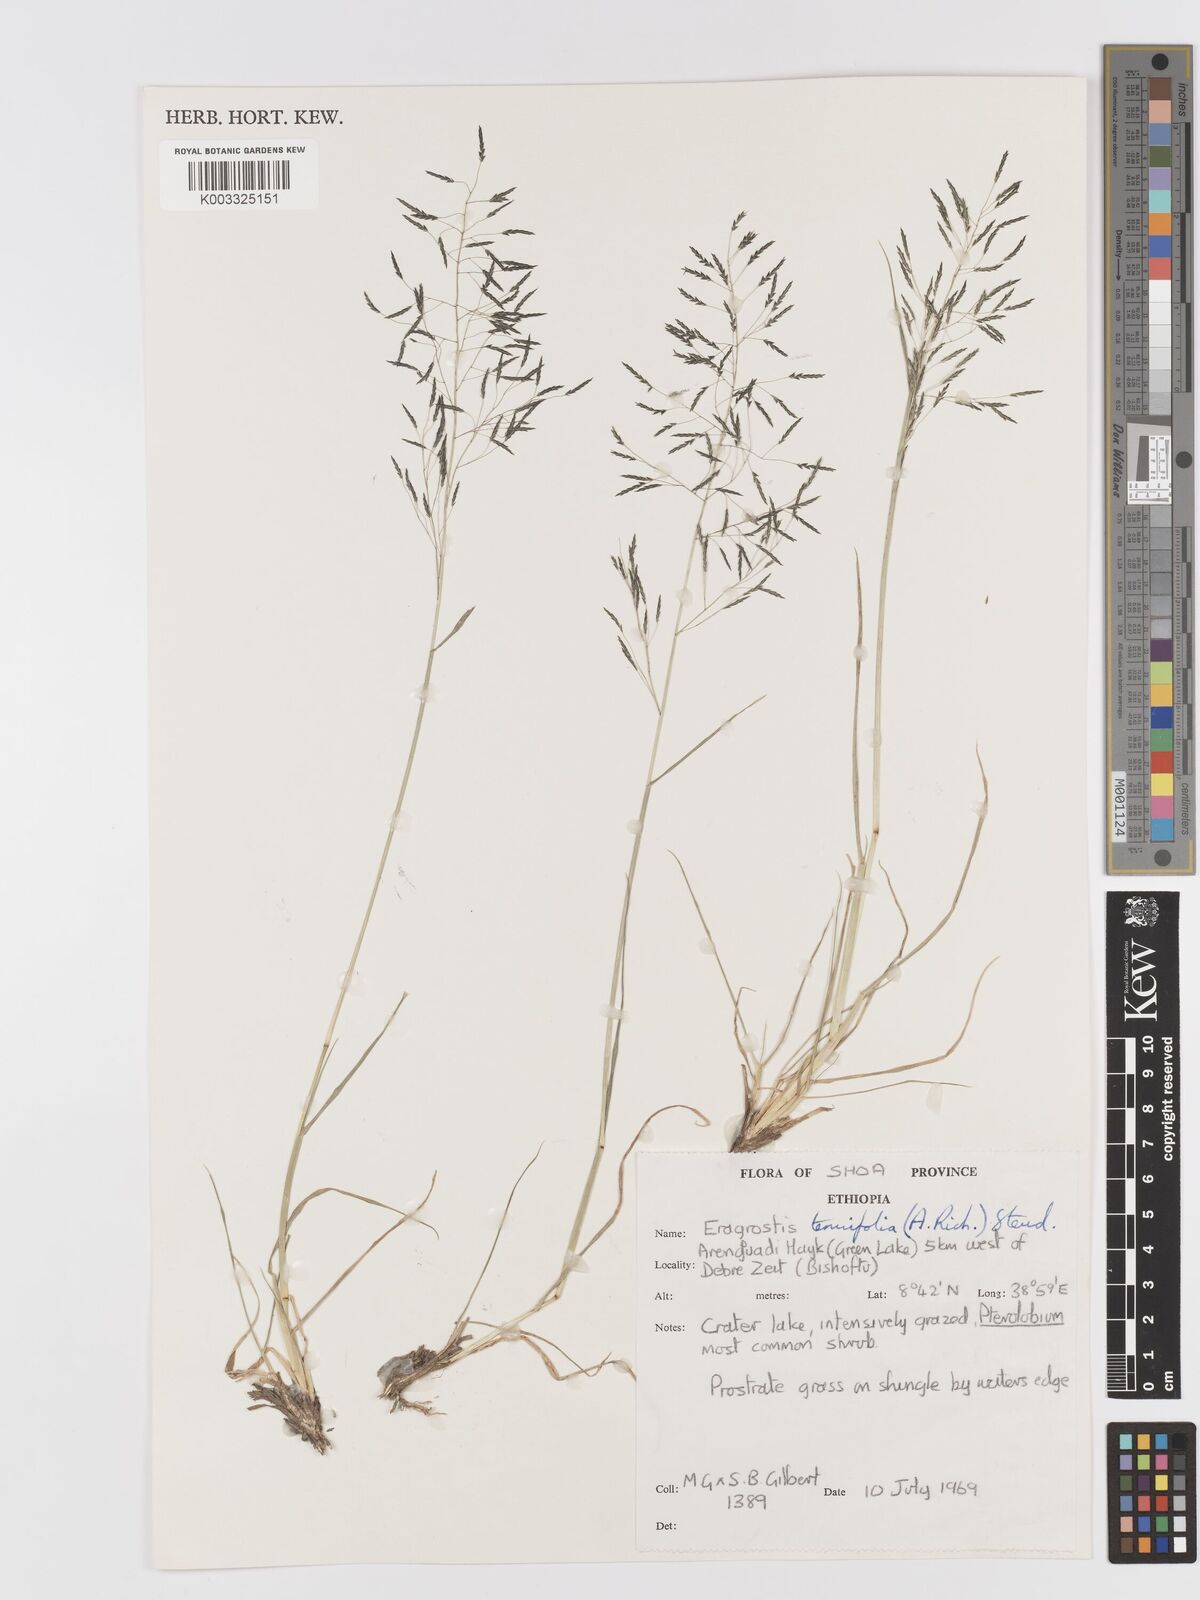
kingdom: Plantae
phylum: Tracheophyta
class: Liliopsida
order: Poales
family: Poaceae
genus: Eragrostis
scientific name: Eragrostis tenuifolia
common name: Elastic grass
